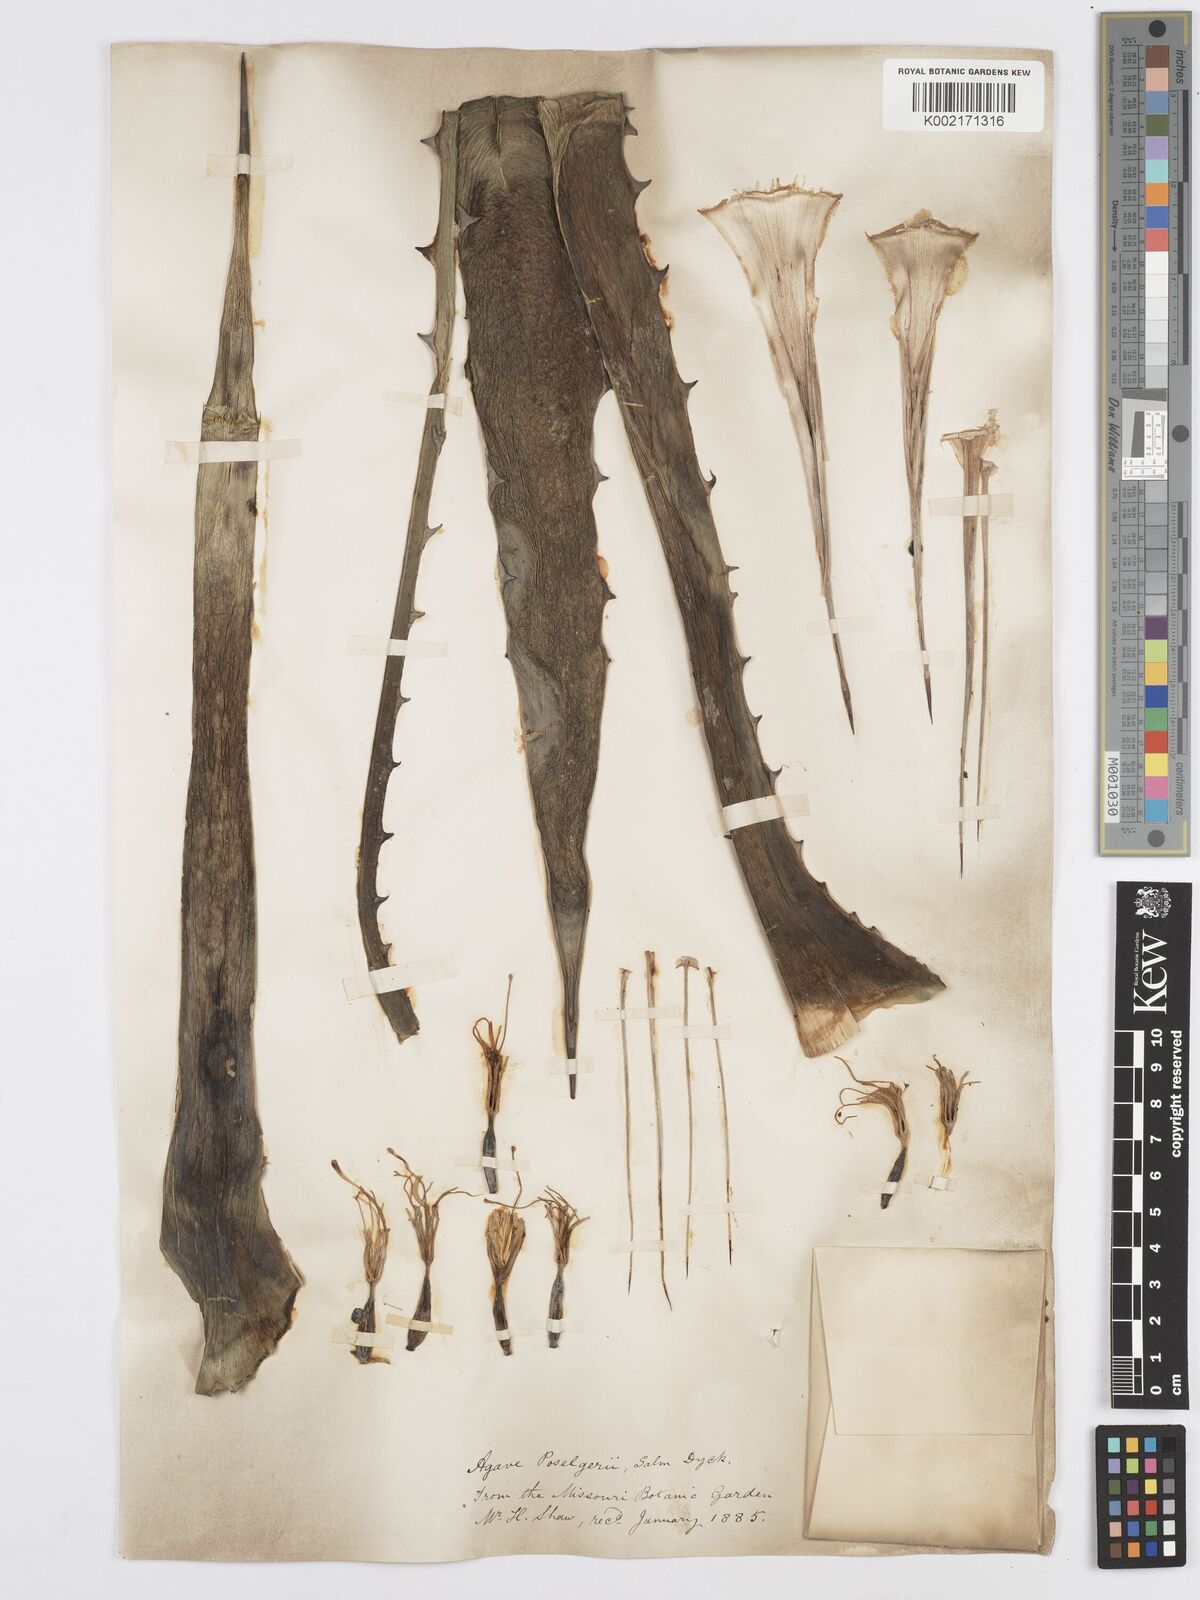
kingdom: Plantae
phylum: Tracheophyta
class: Liliopsida
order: Asparagales
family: Asparagaceae
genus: Agave
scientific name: Agave lechuguilla
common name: Lecheguilla agave
